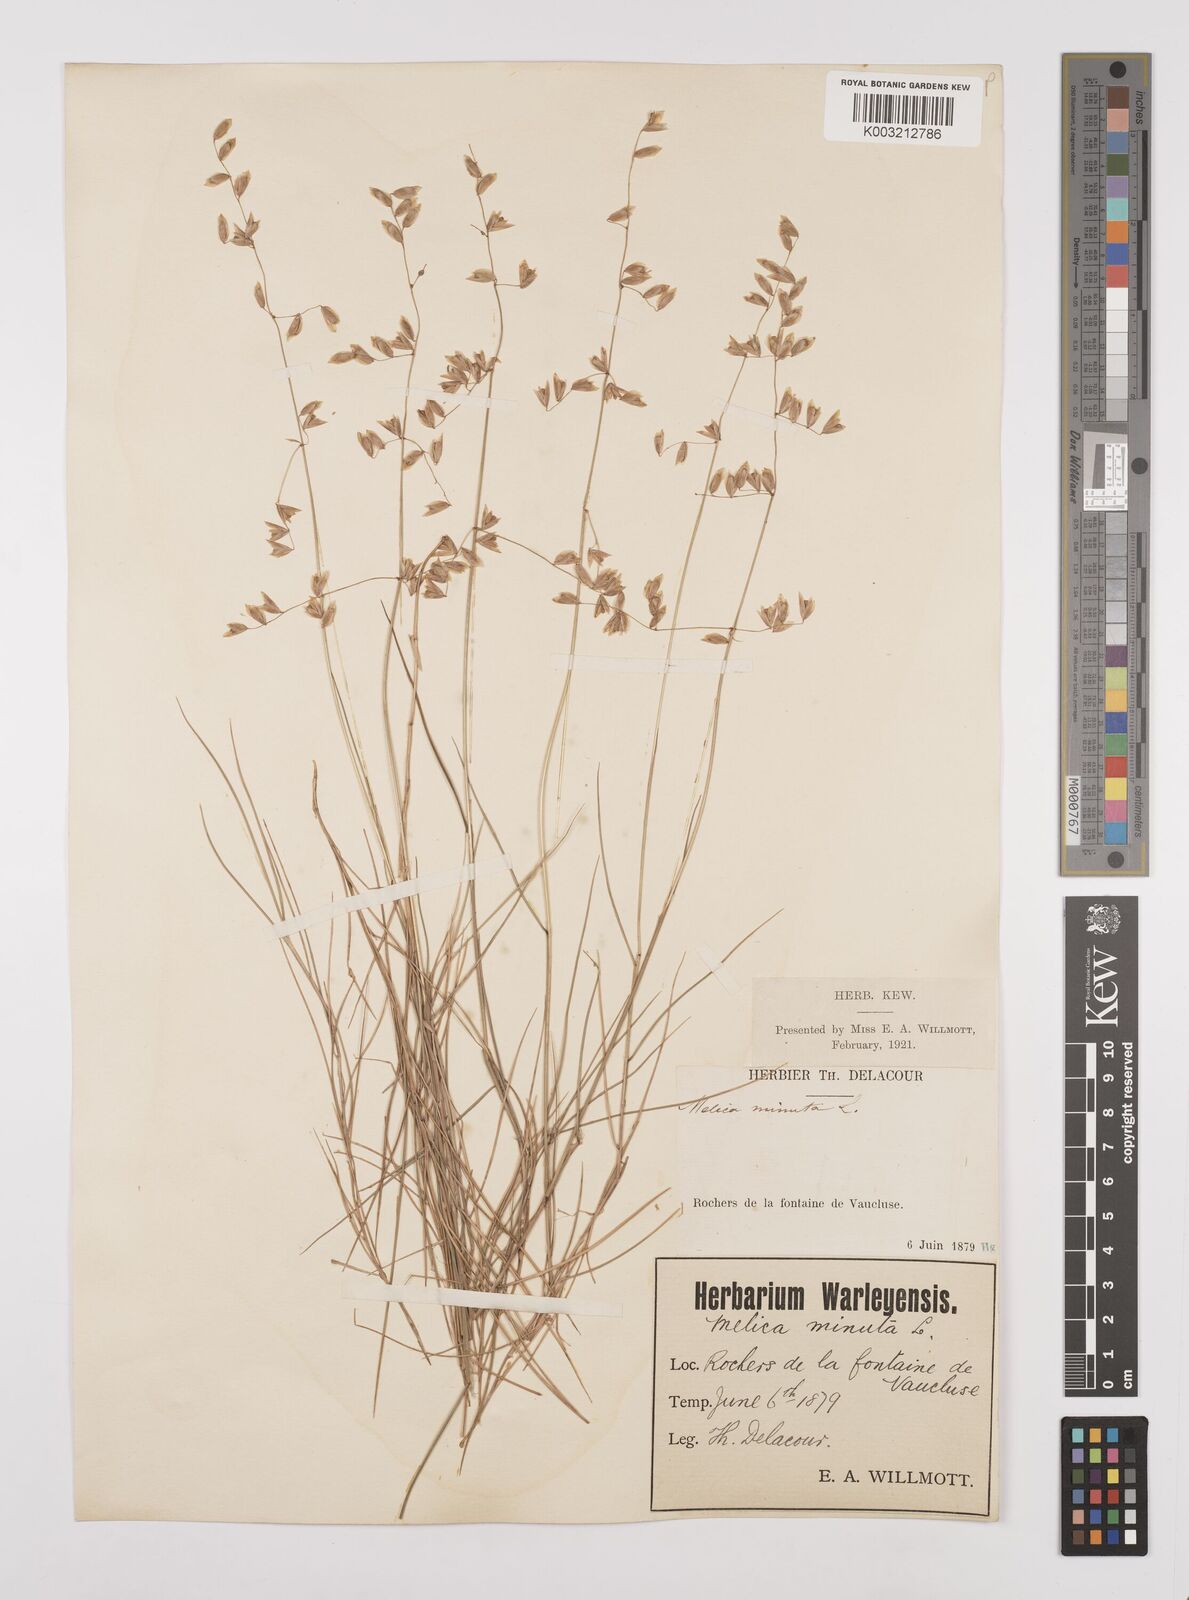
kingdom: Plantae
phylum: Tracheophyta
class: Liliopsida
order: Poales
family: Poaceae
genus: Melica
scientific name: Melica minuta
